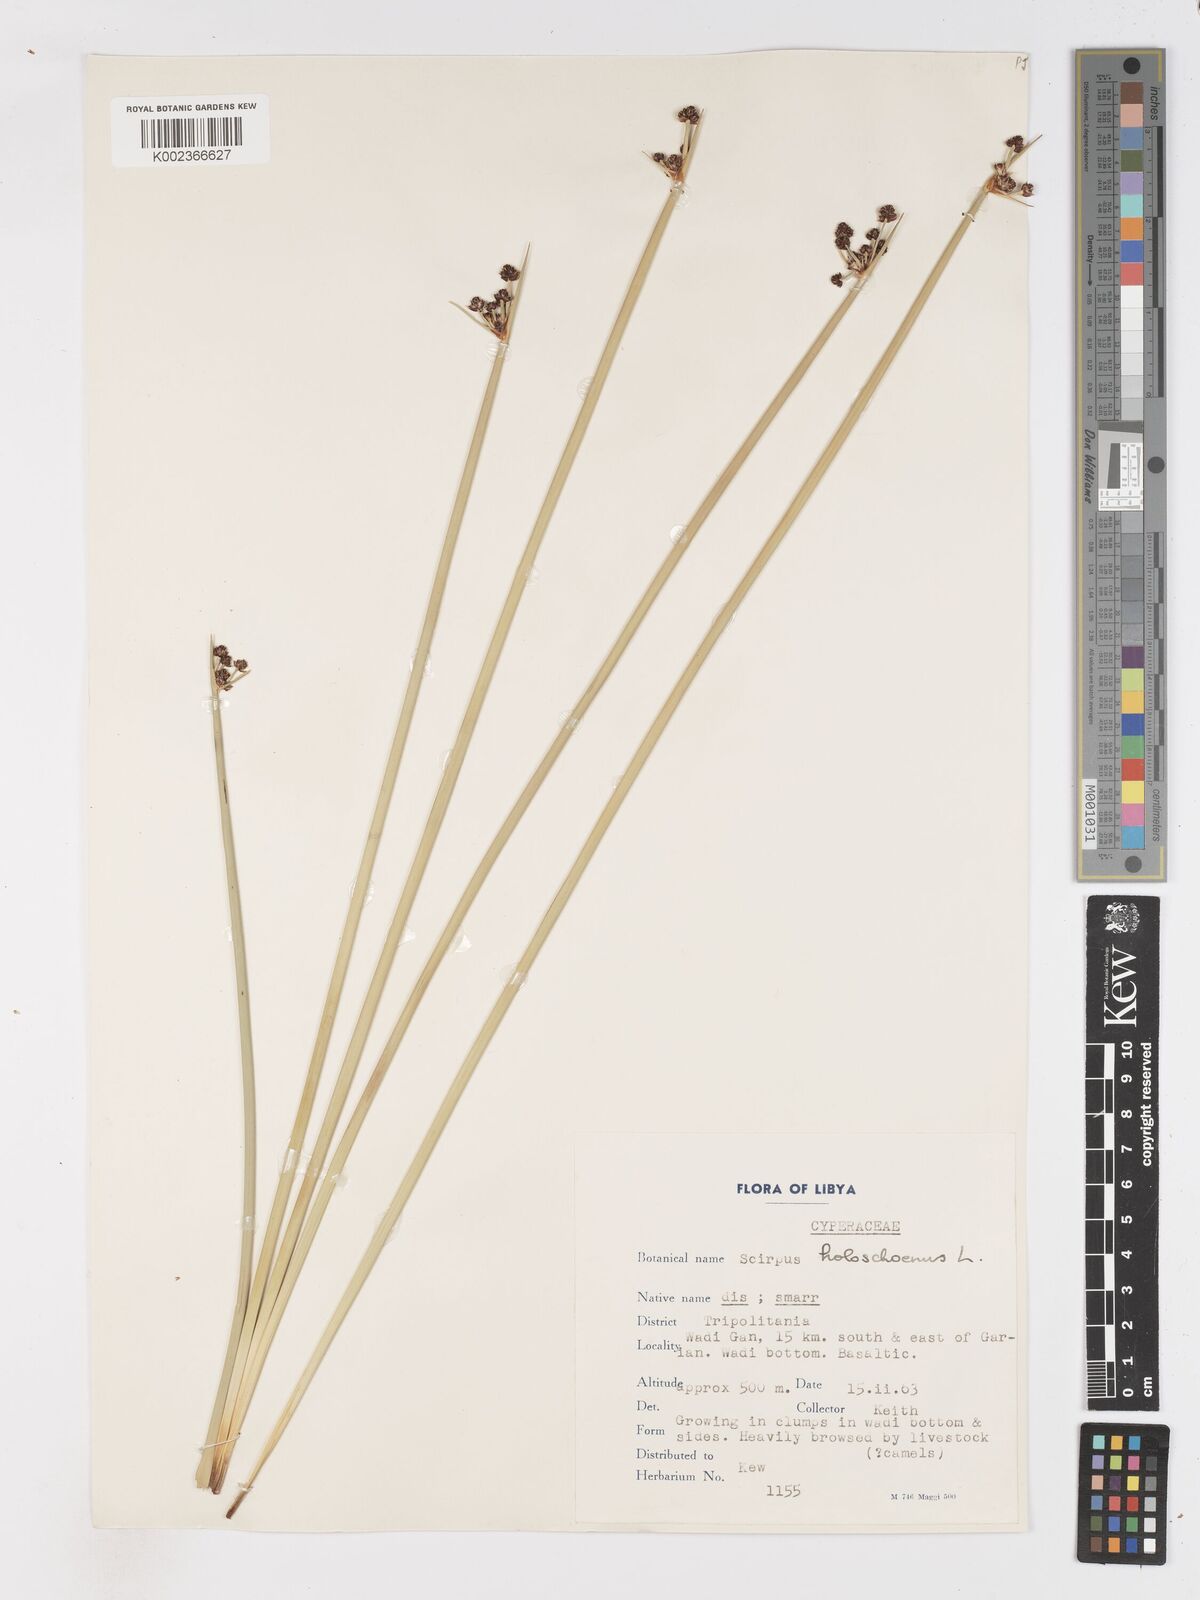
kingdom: Plantae
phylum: Tracheophyta
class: Liliopsida
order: Poales
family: Cyperaceae
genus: Scirpoides
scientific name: Scirpoides holoschoenus
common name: Round-headed club-rush
